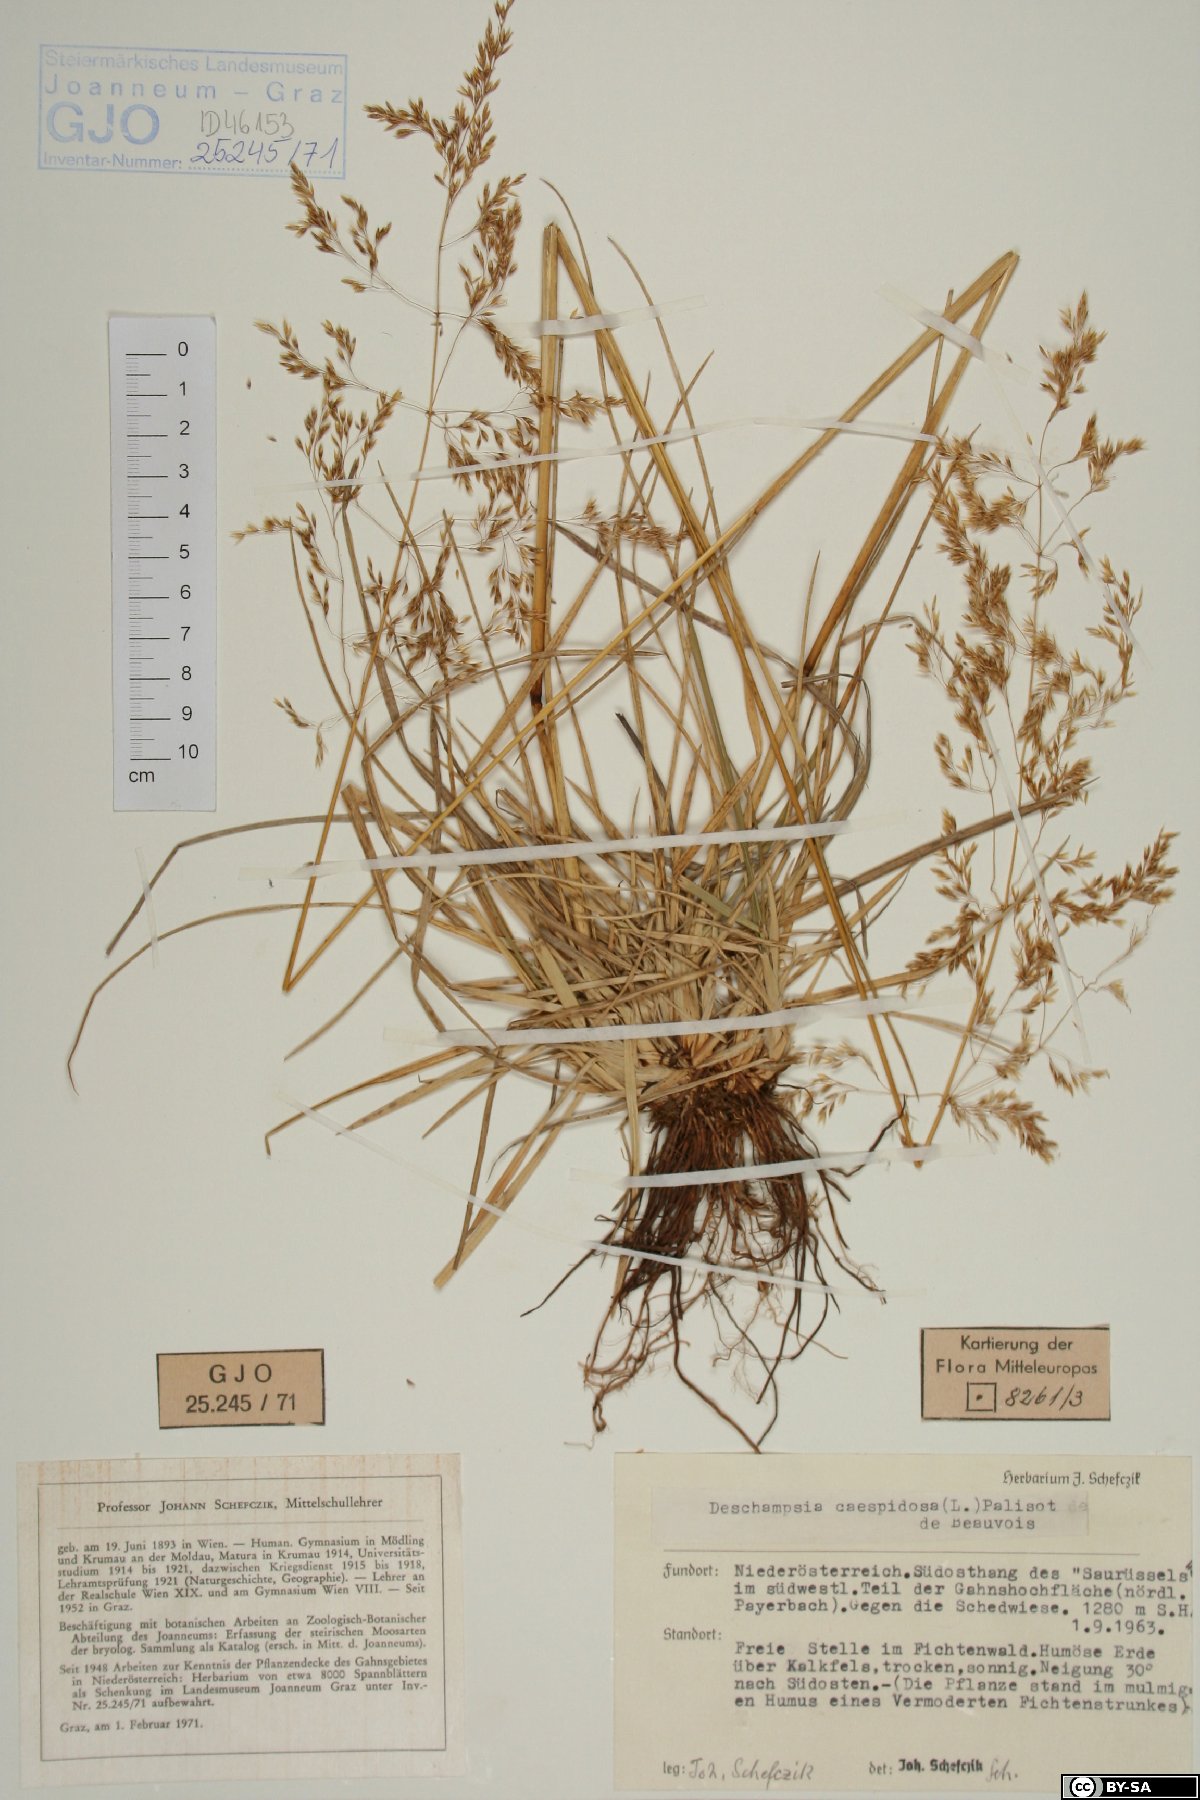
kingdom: Plantae
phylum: Tracheophyta
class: Liliopsida
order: Poales
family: Poaceae
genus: Deschampsia
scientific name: Deschampsia cespitosa
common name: Tufted hair-grass
